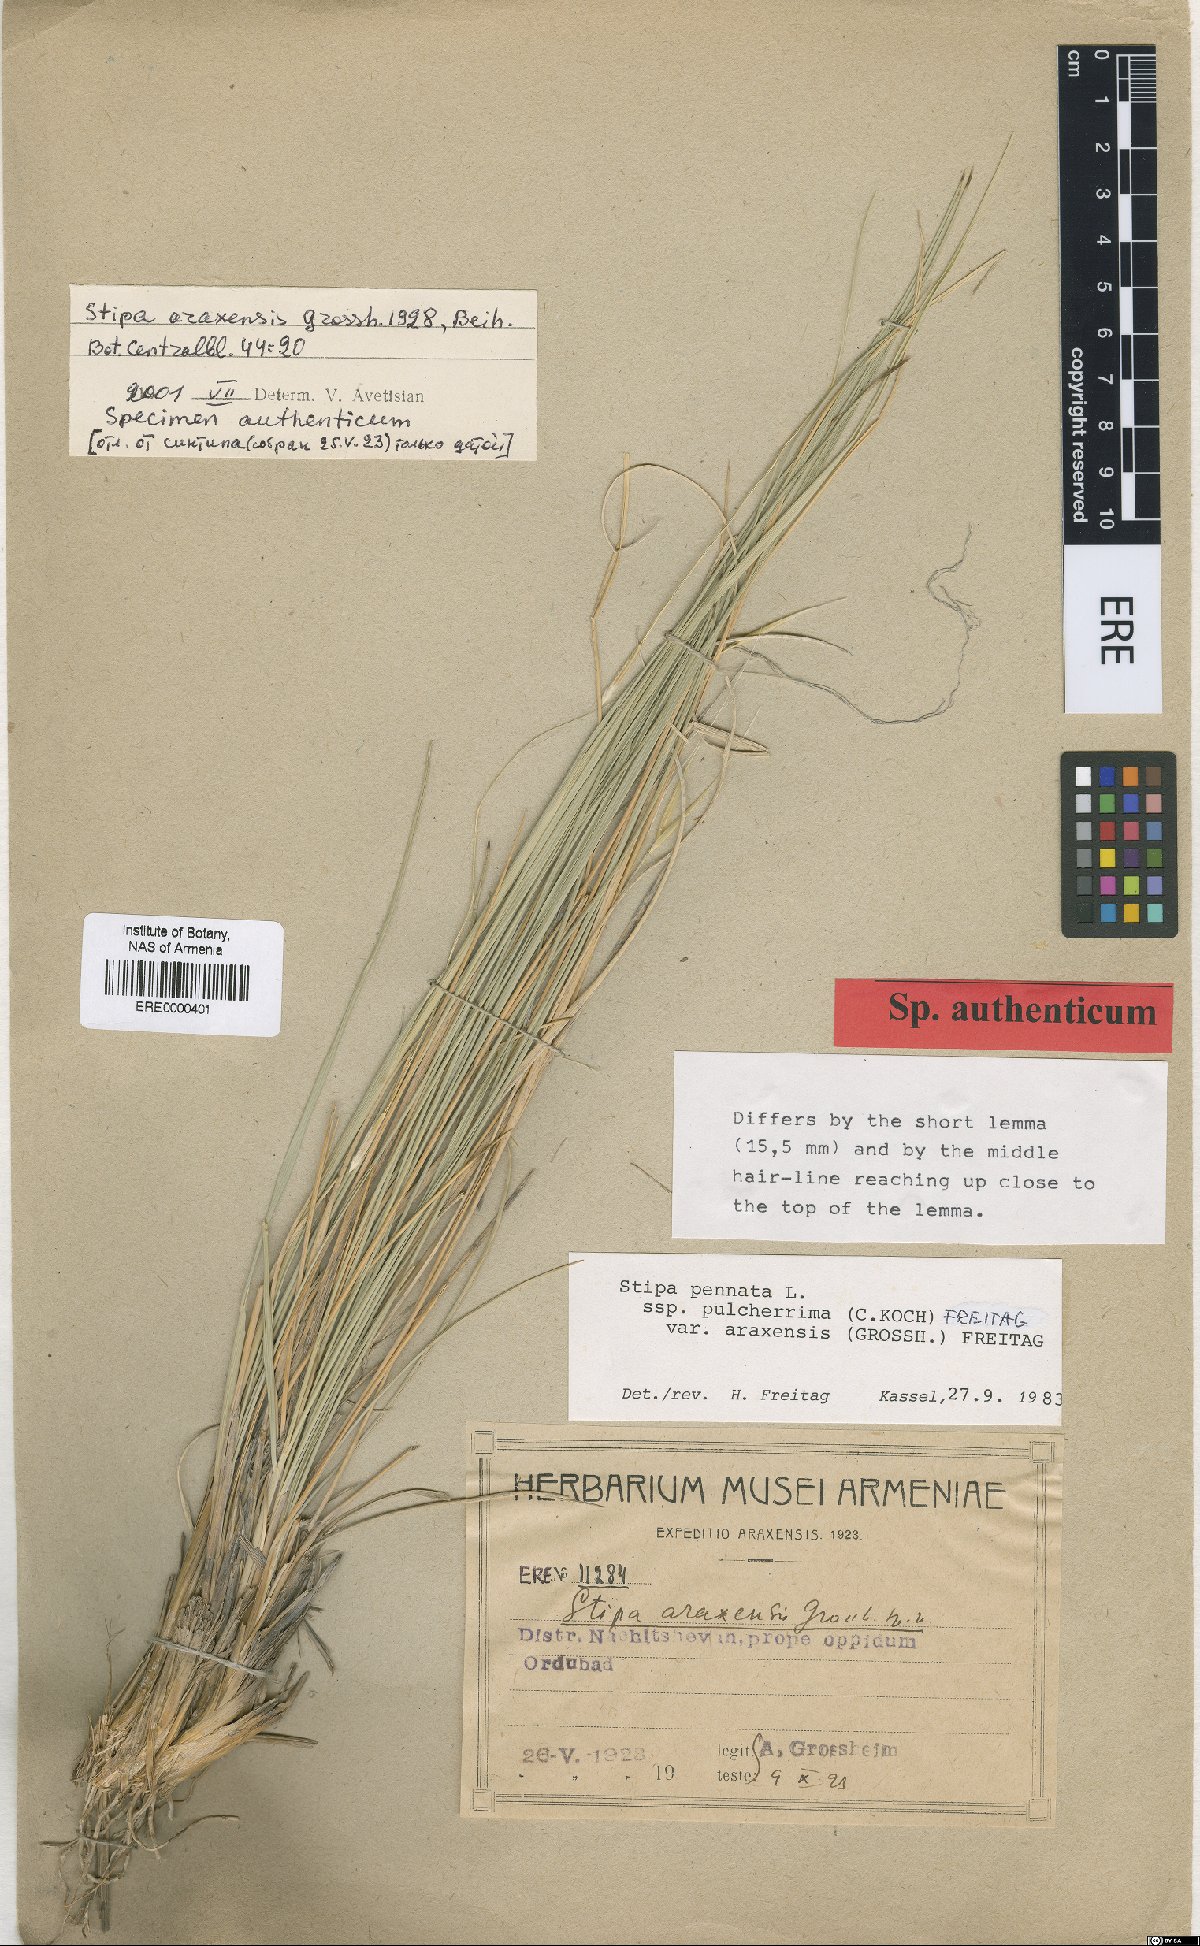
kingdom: Plantae
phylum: Tracheophyta
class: Liliopsida
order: Poales
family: Poaceae
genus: Stipa
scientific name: Stipa araxensis
